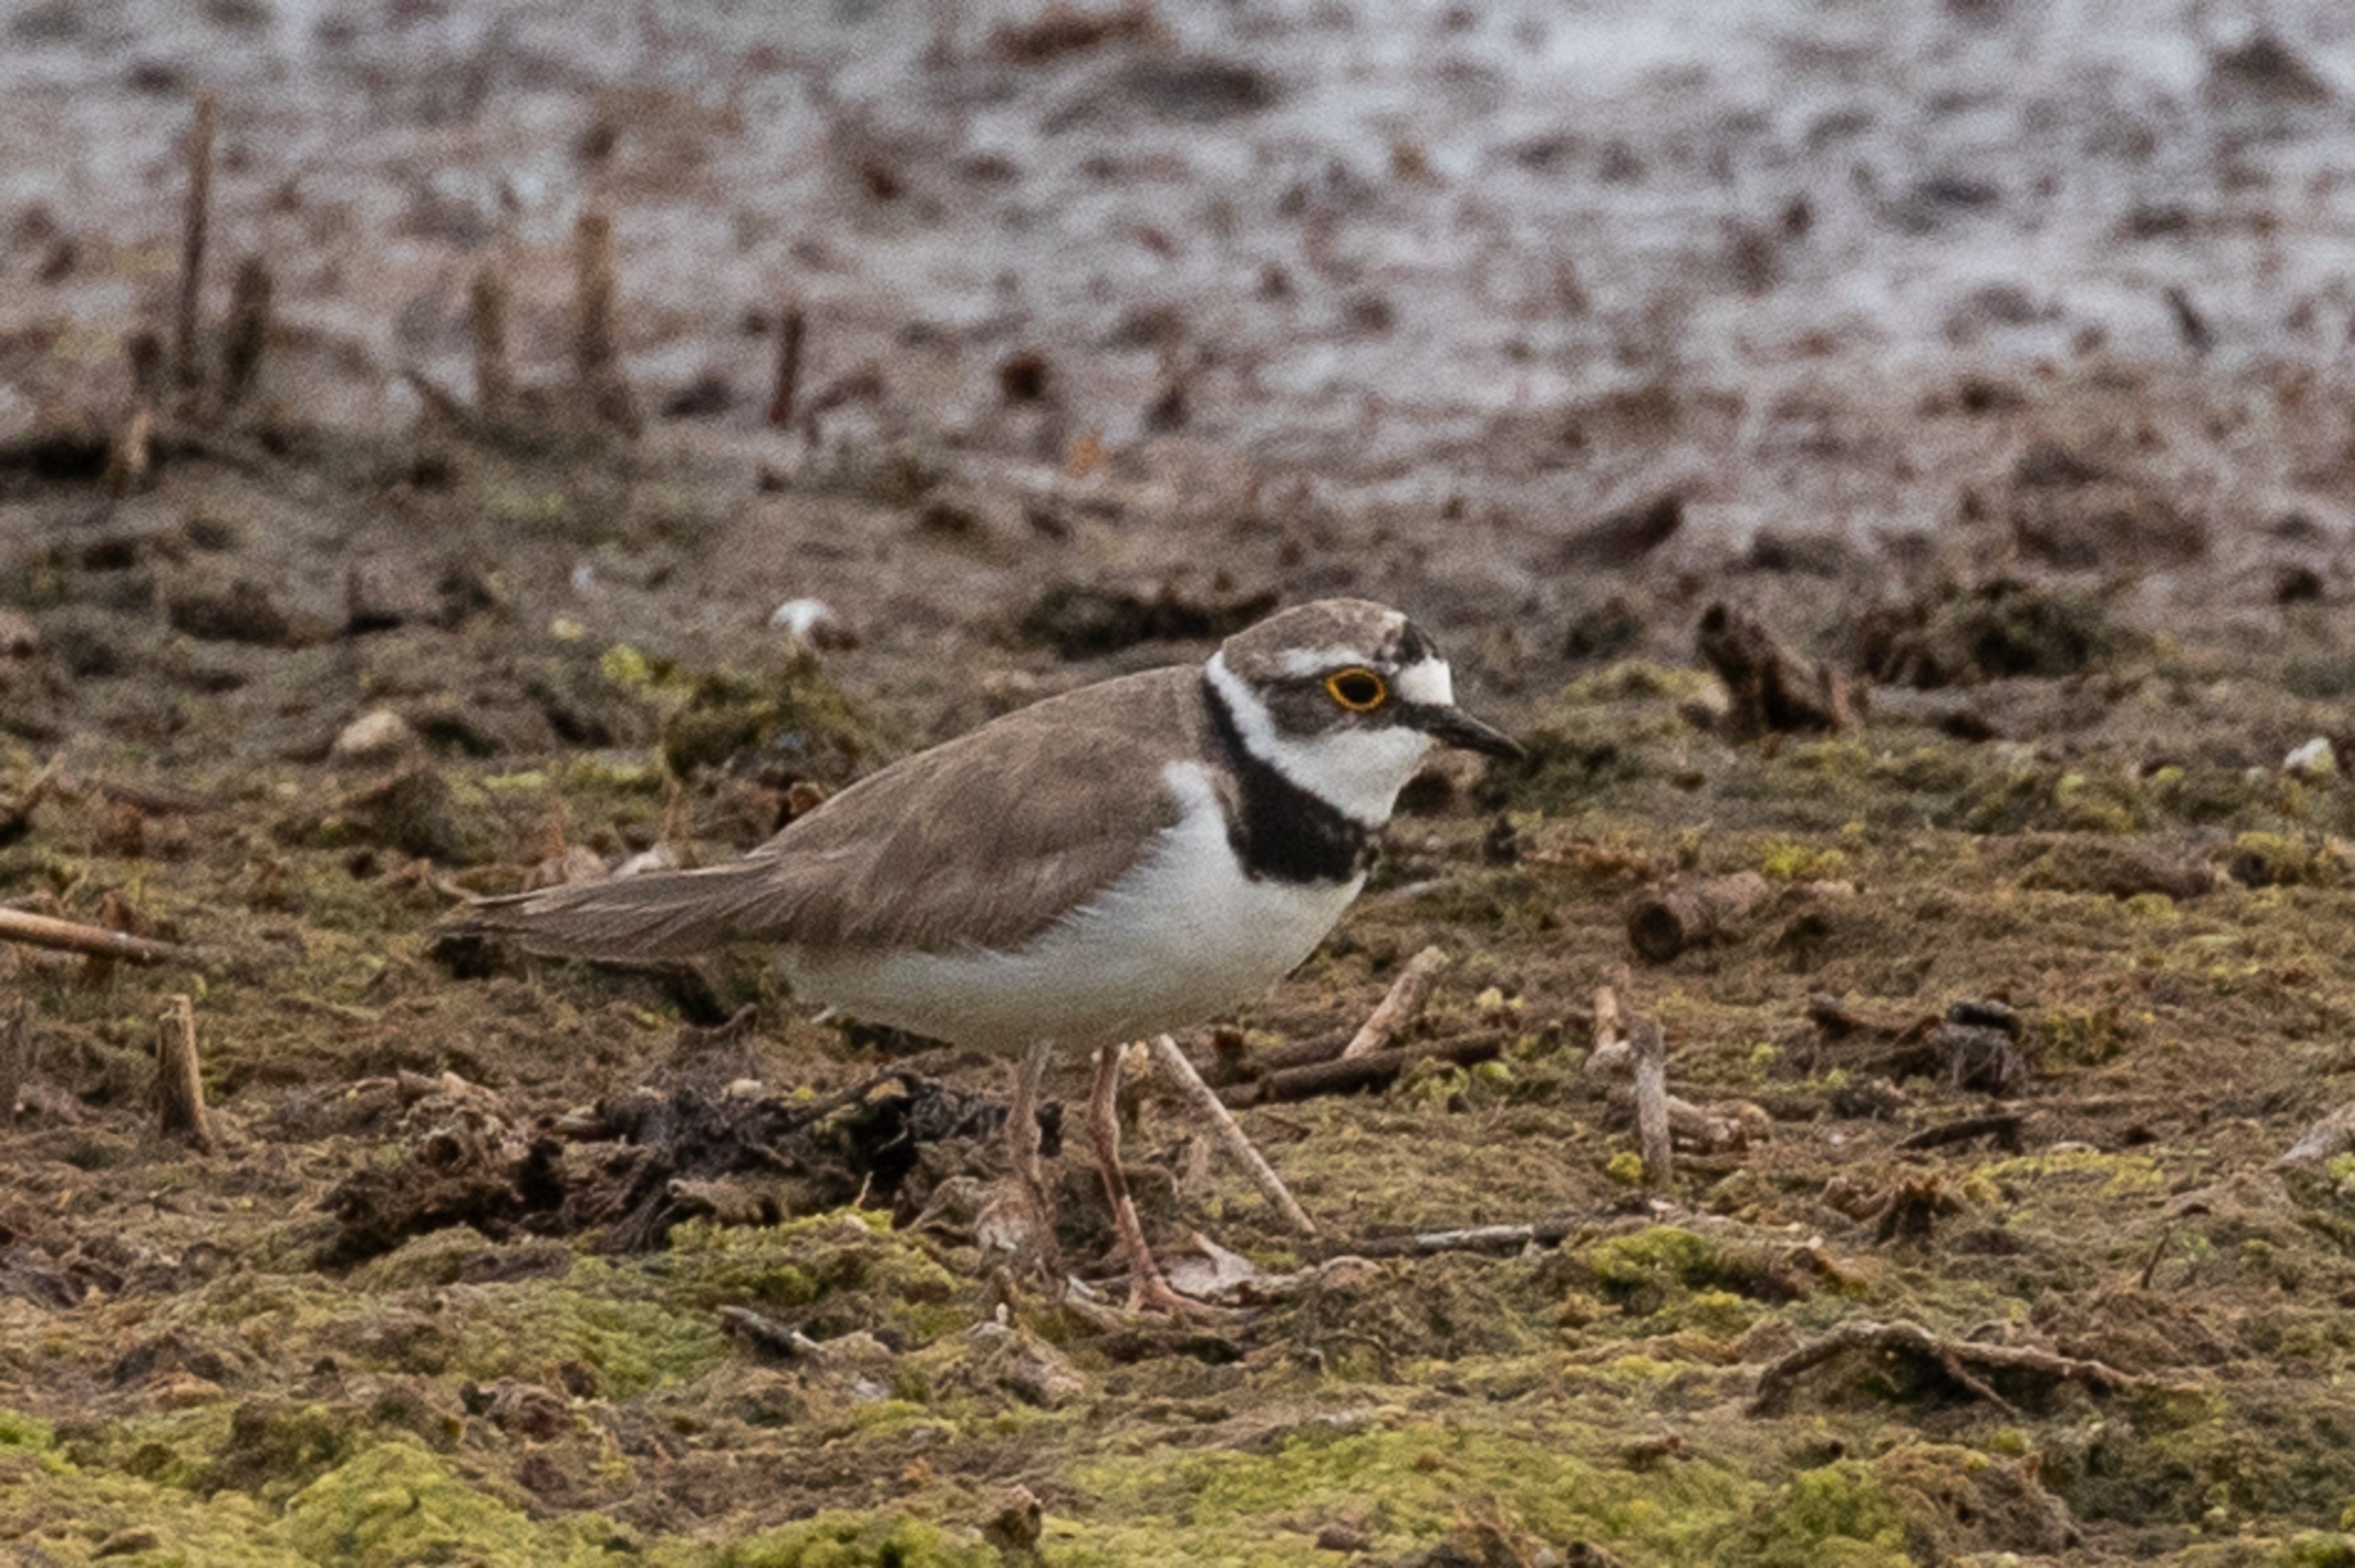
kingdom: Animalia
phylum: Chordata
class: Aves
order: Charadriiformes
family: Charadriidae
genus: Charadrius
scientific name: Charadrius dubius
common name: Lille præstekrave
